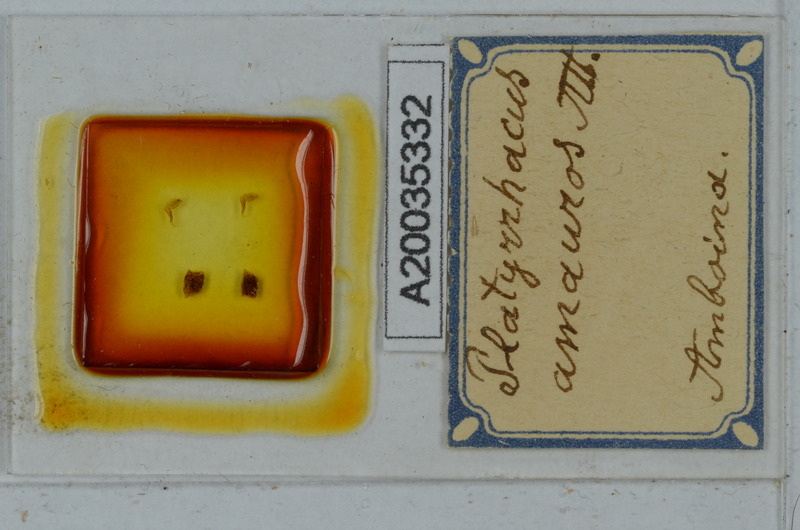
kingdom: Animalia
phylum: Arthropoda
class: Diplopoda
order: Polydesmida
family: Platyrhacidae
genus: Platyrhacus
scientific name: Platyrhacus amauros
